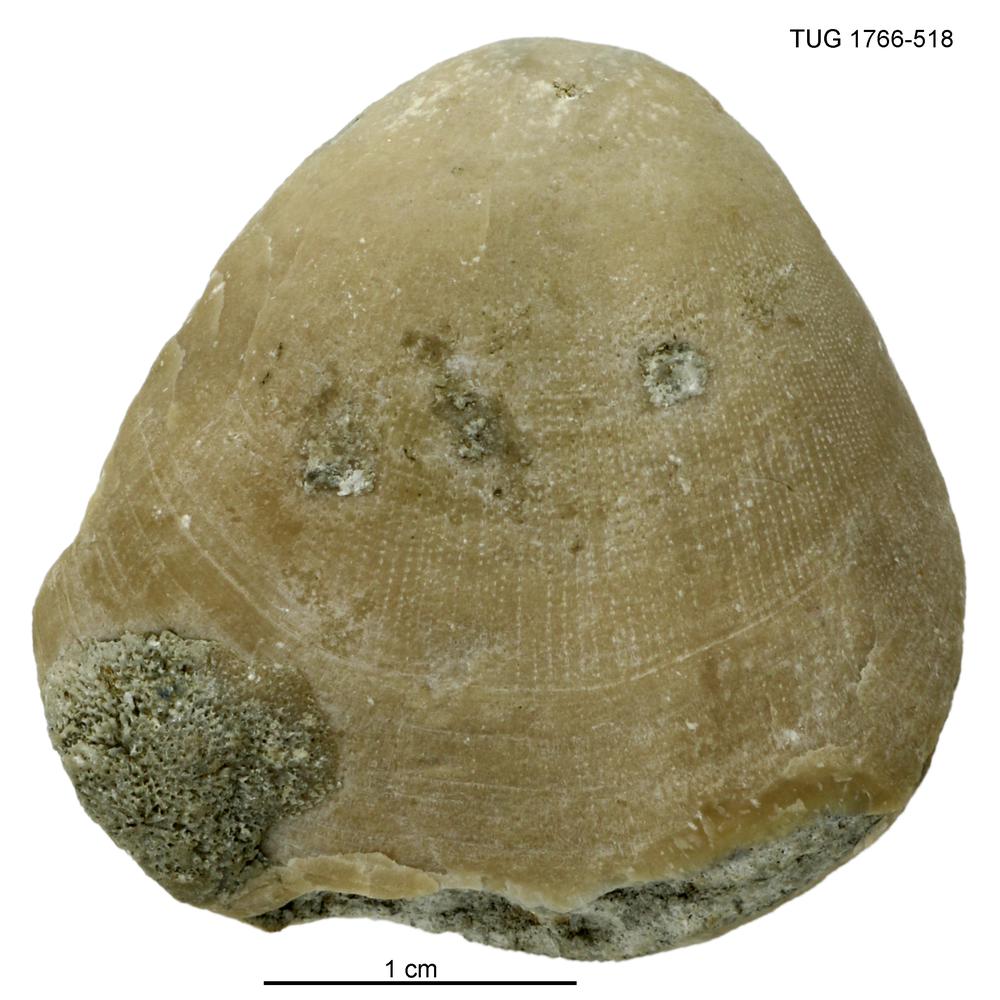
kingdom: Animalia
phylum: Brachiopoda
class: Rhynchonellata
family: Porambonitidae
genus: Porambonites
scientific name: Porambonites
